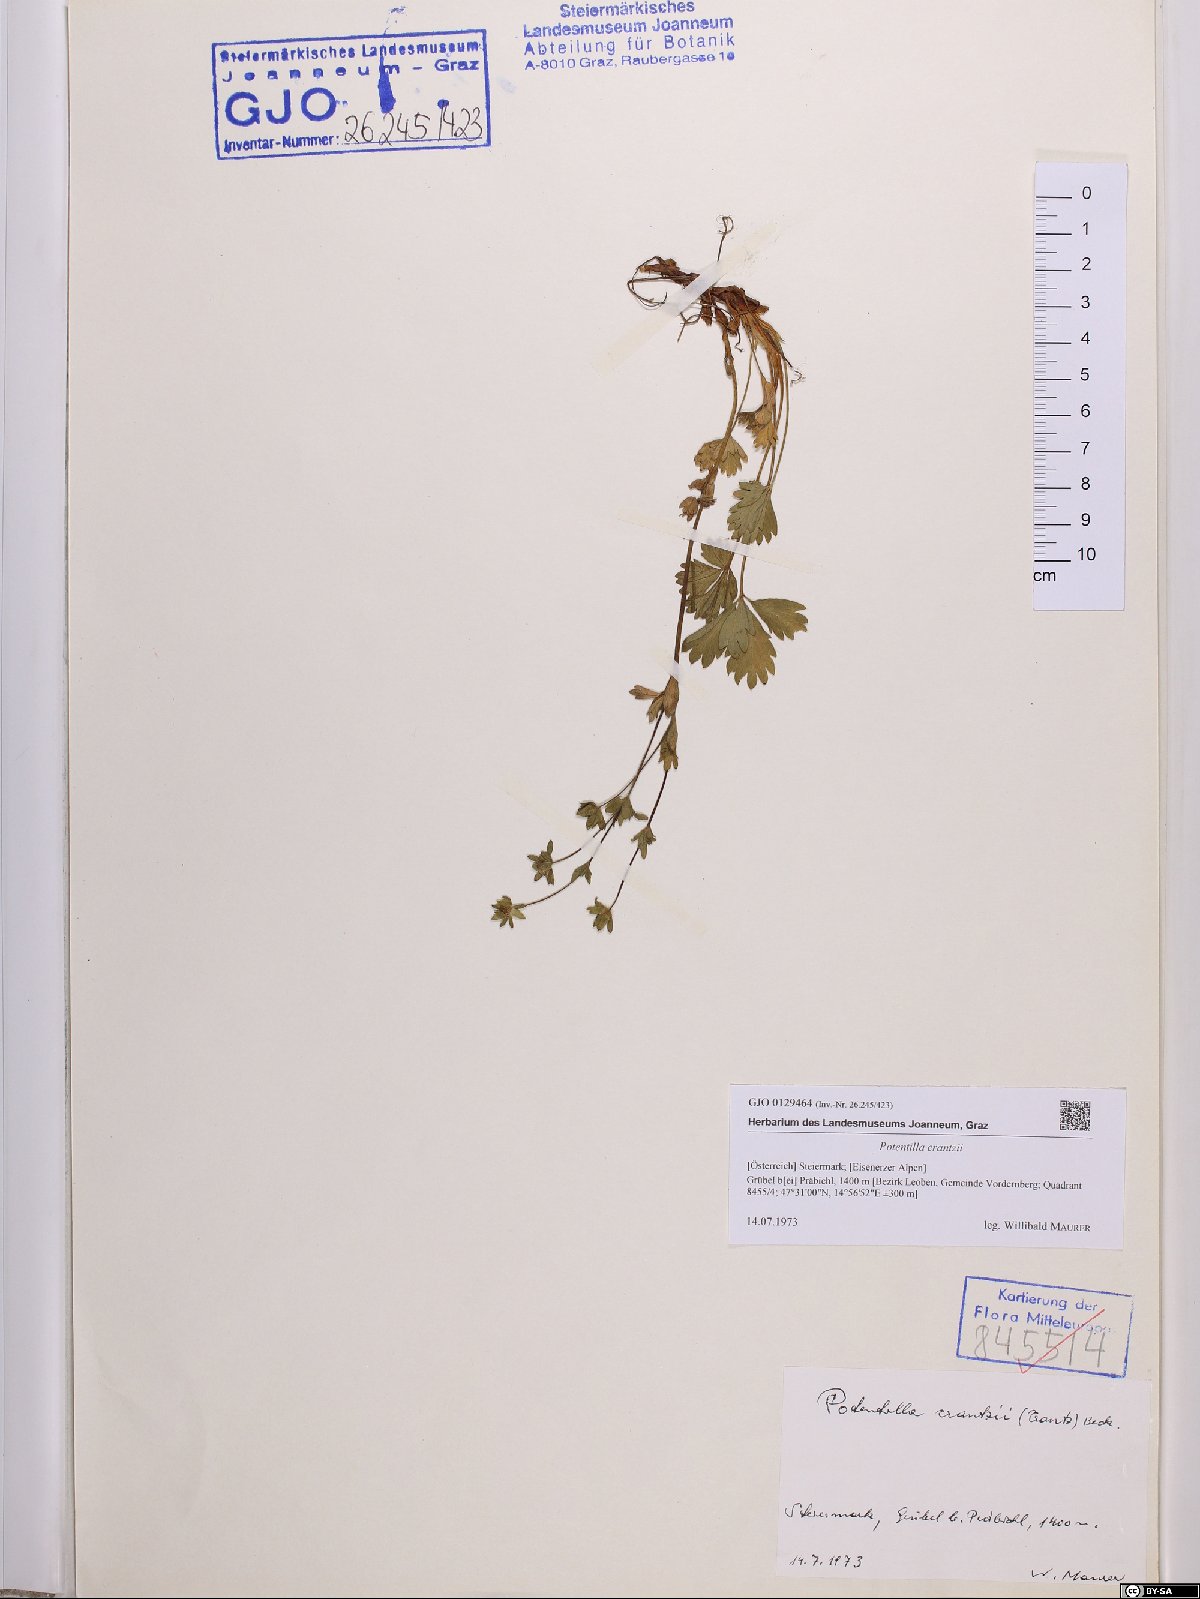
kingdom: Plantae
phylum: Tracheophyta
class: Magnoliopsida
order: Rosales
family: Rosaceae
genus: Potentilla
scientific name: Potentilla crantzii
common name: Alpine cinquefoil
